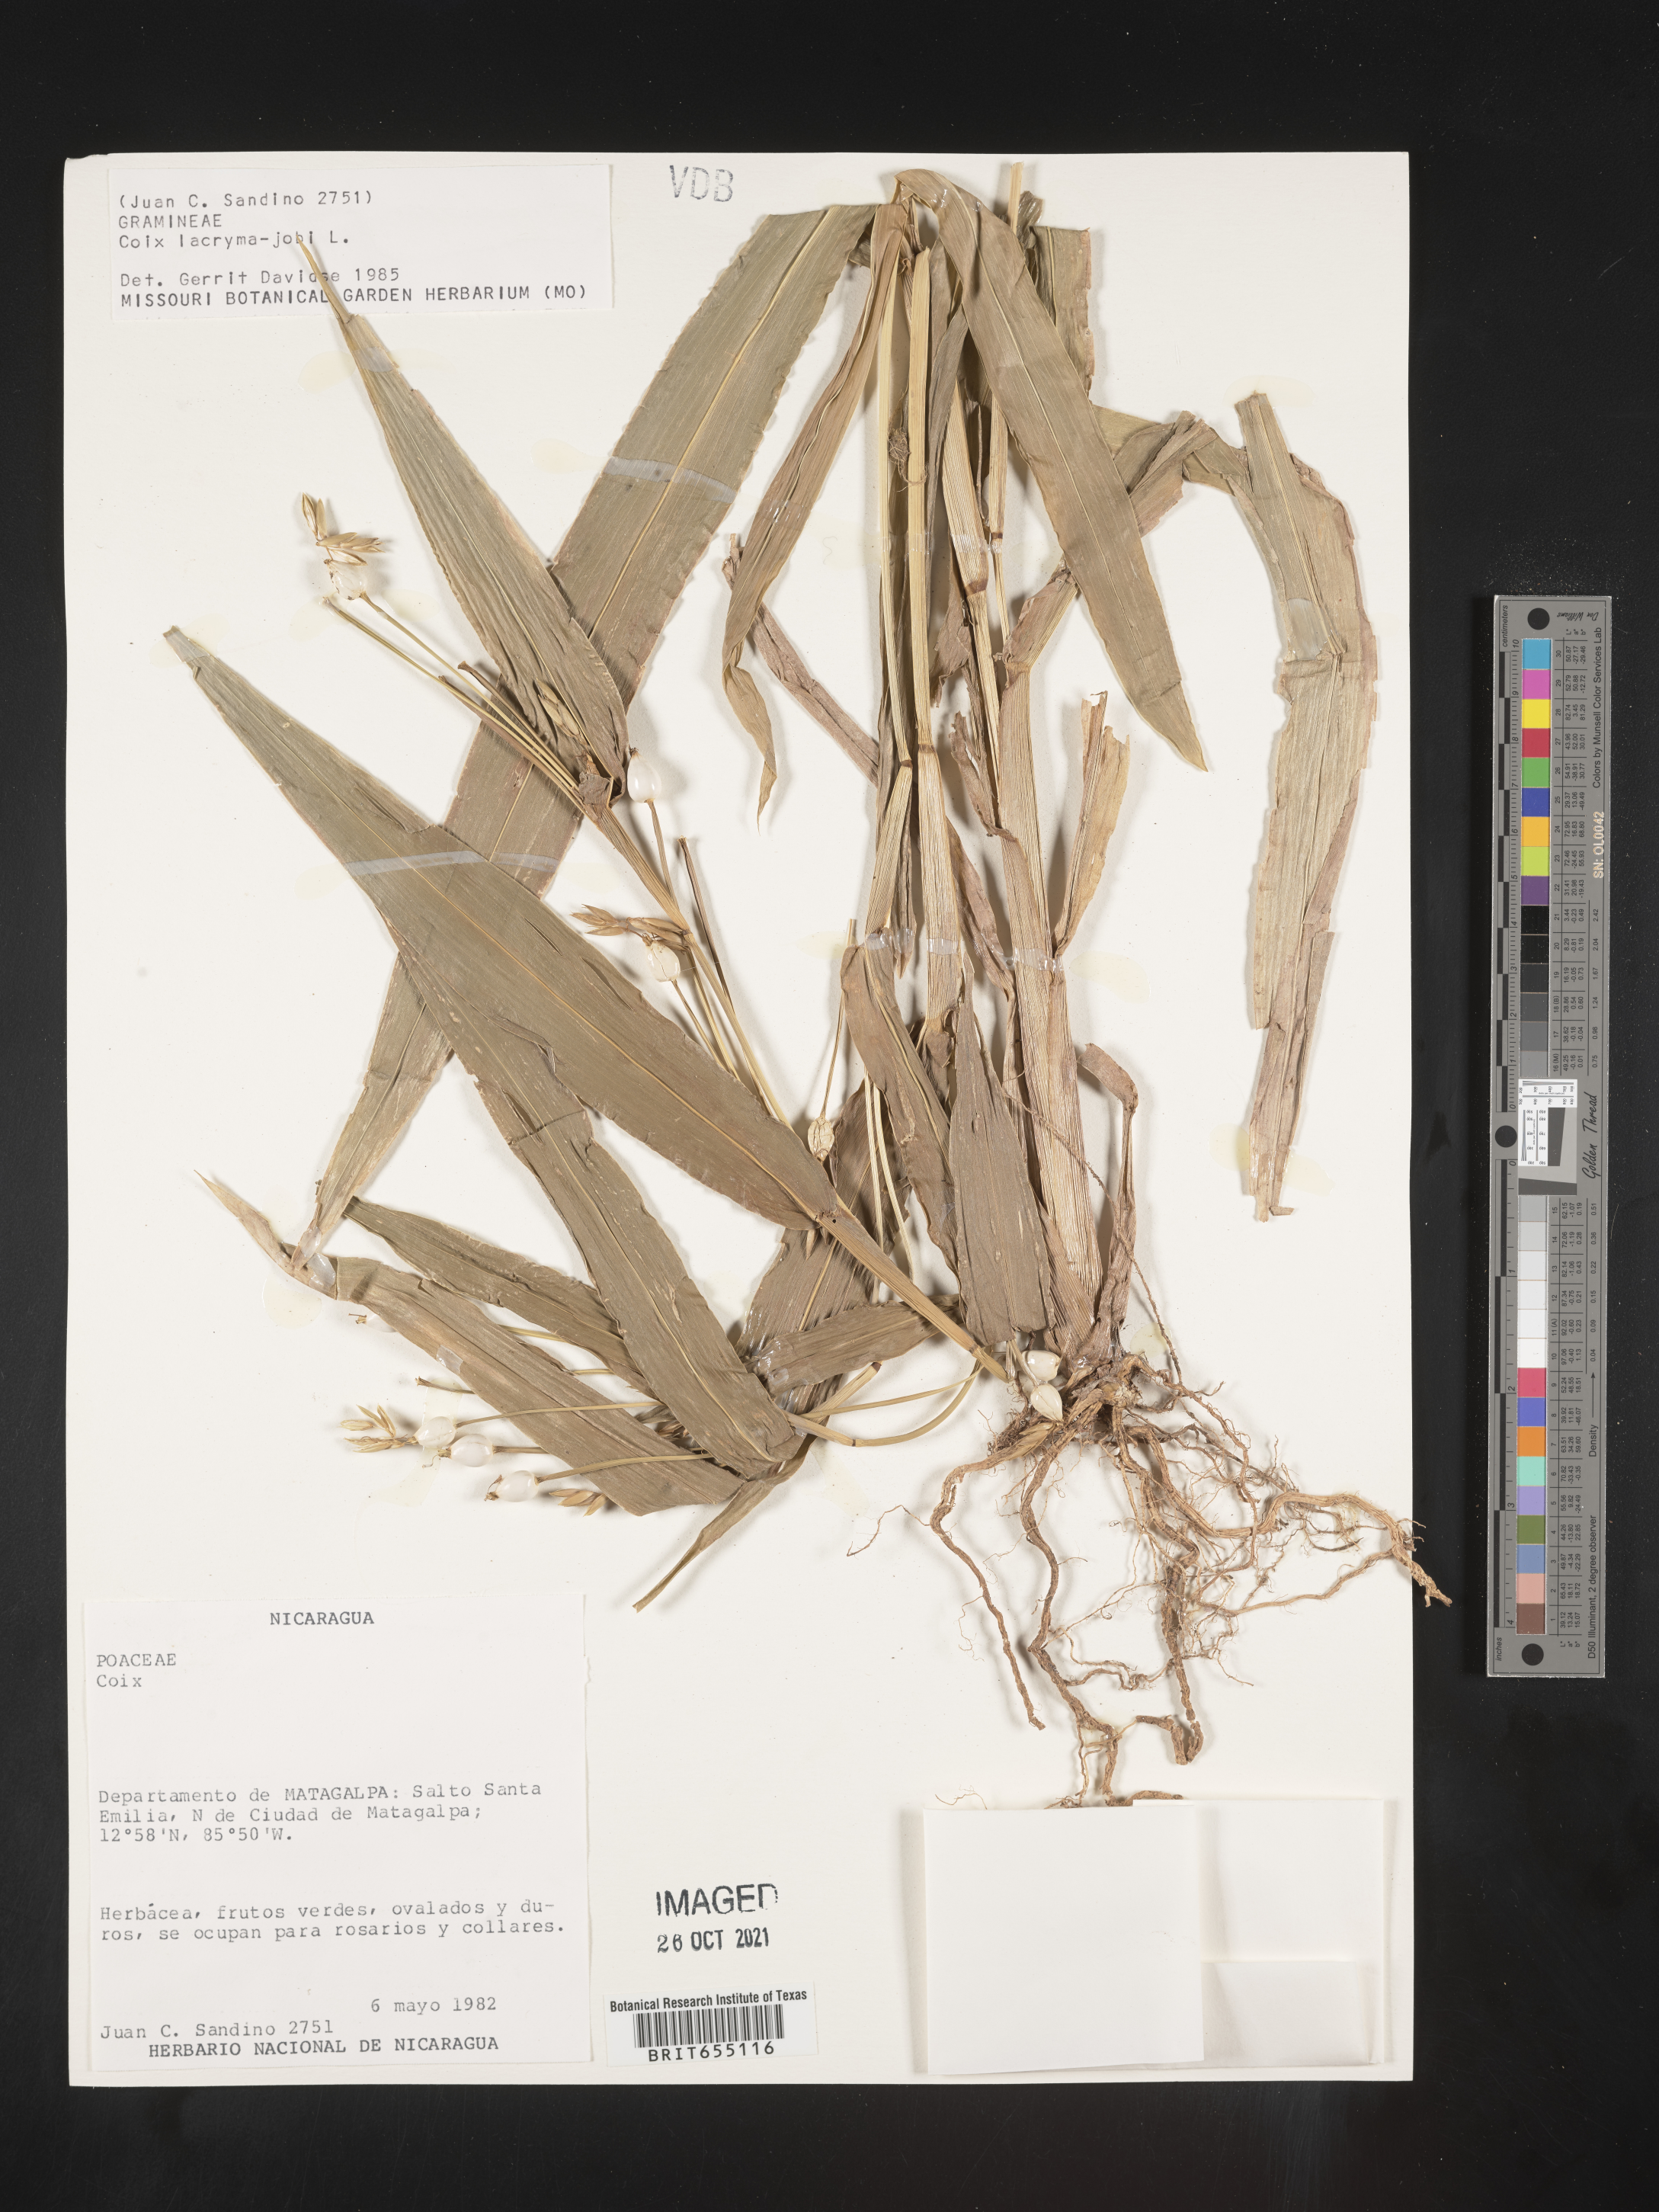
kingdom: Plantae
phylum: Tracheophyta
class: Liliopsida
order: Poales
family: Poaceae
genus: Coix
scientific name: Coix
